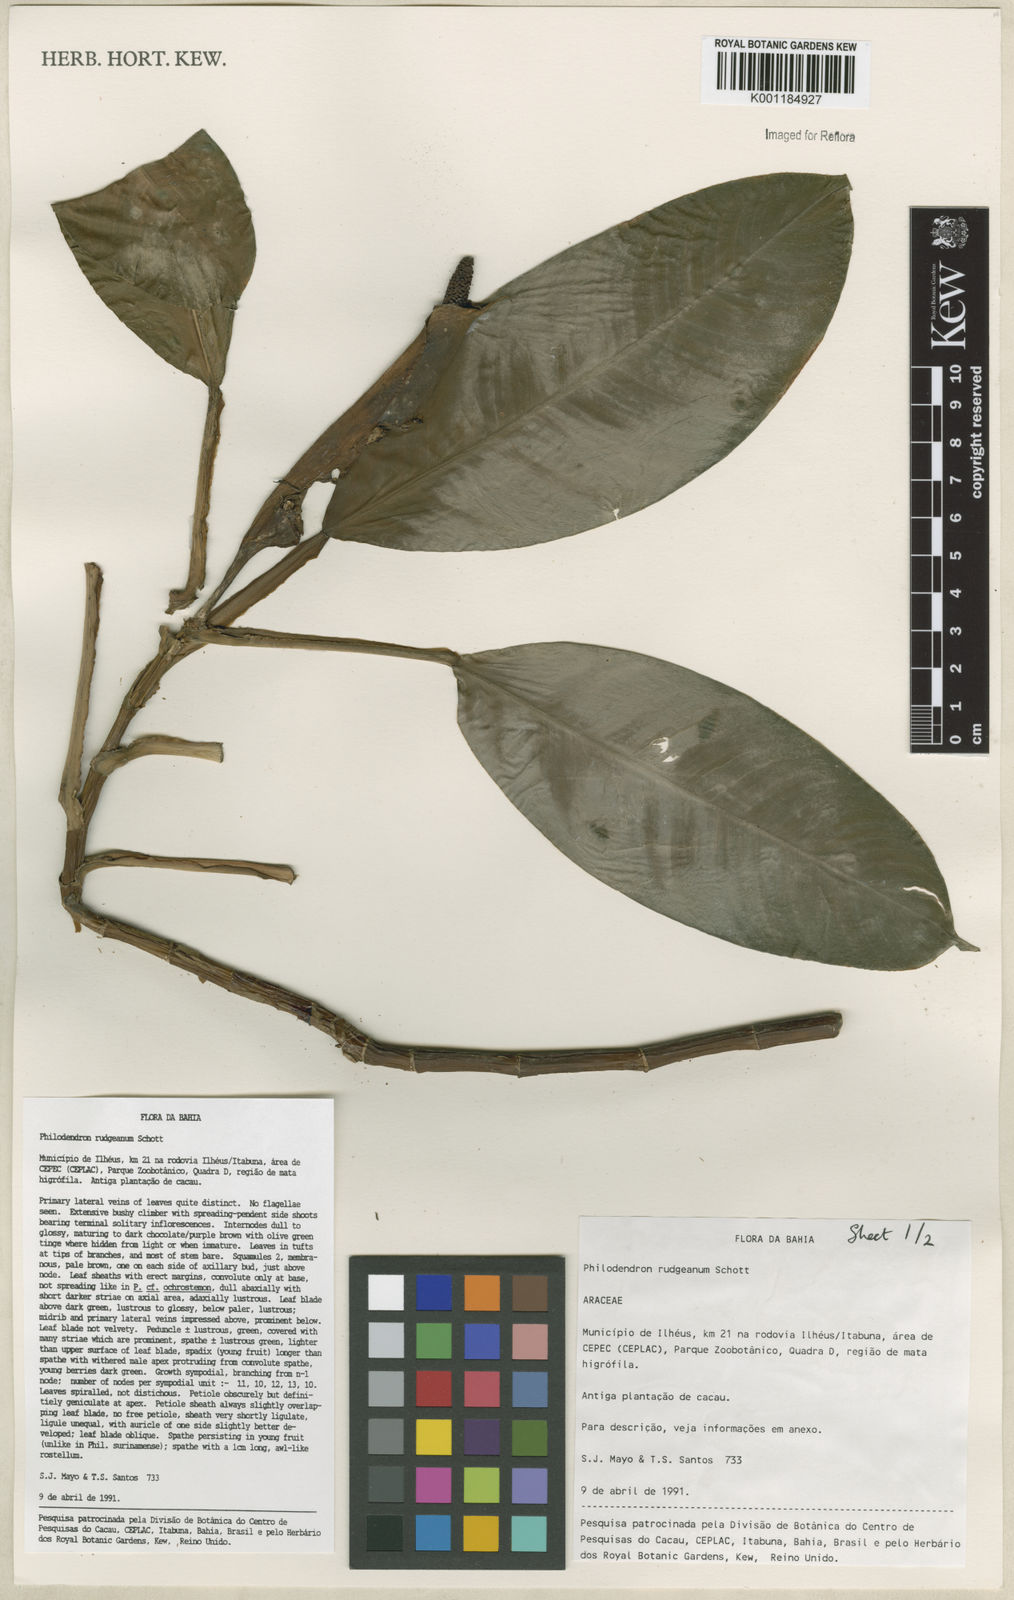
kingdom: Plantae
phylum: Tracheophyta
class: Liliopsida
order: Alismatales
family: Araceae
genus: Philodendron
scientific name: Philodendron rudgeanum
